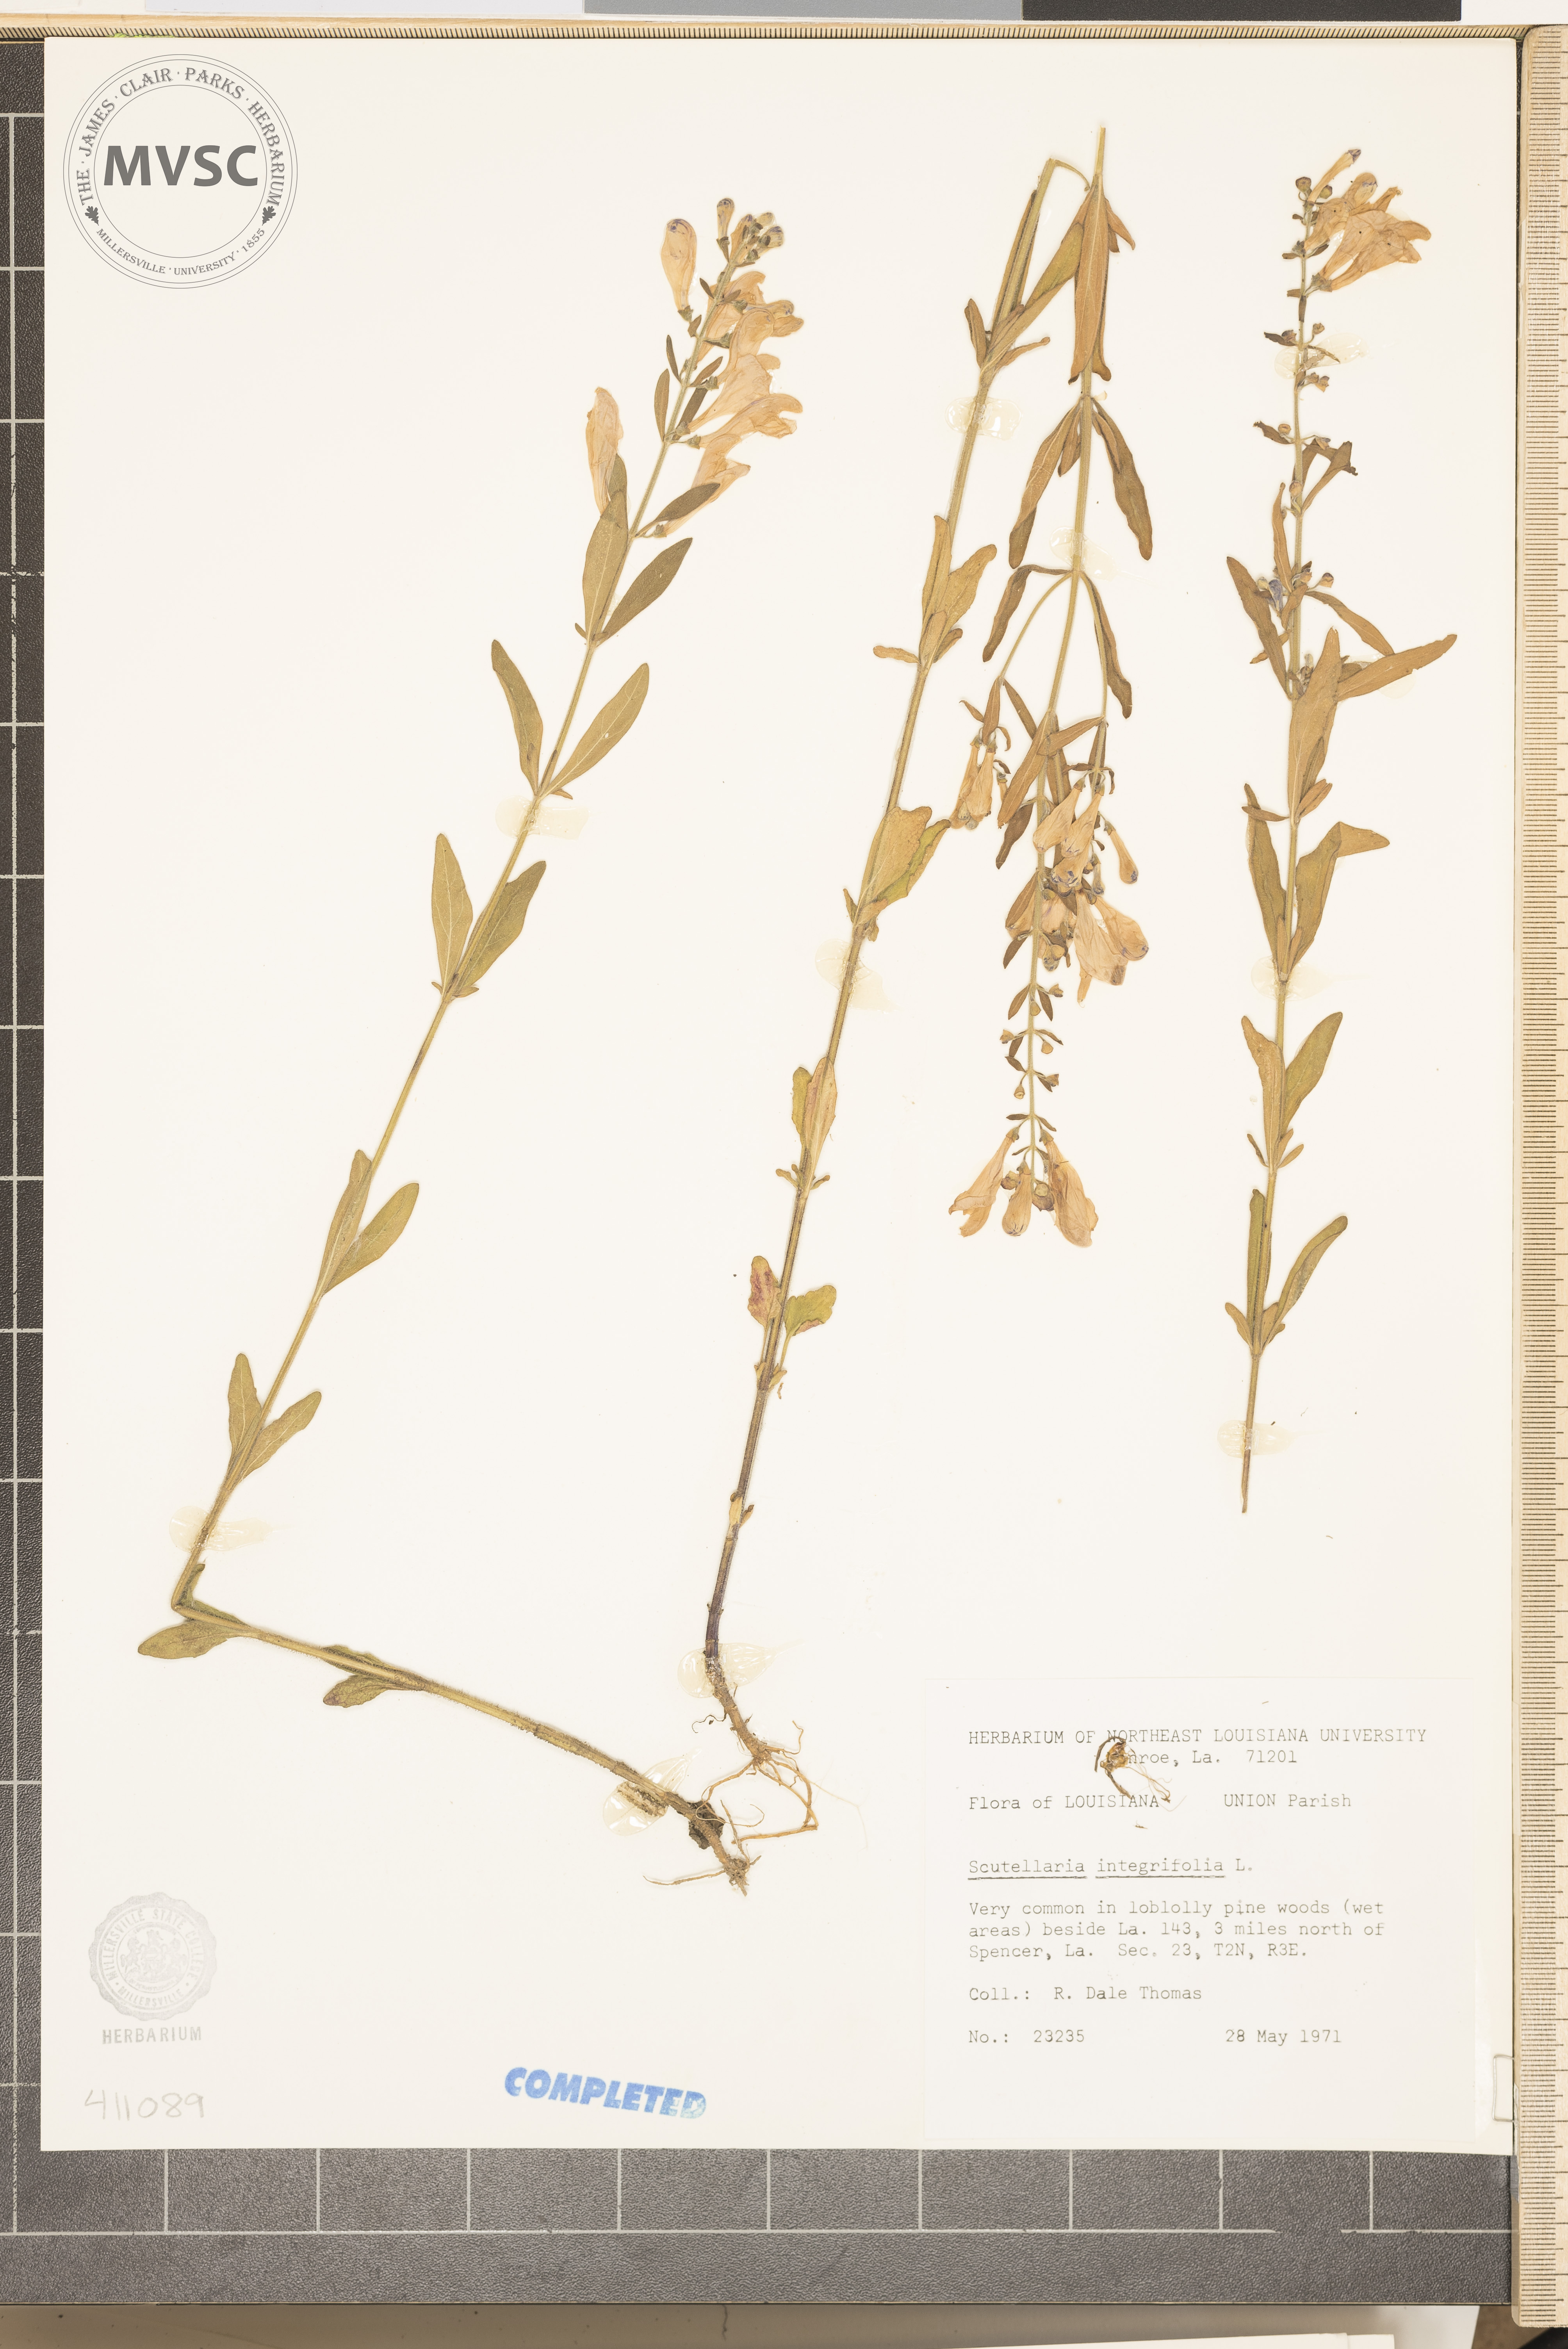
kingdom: Plantae
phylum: Tracheophyta
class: Magnoliopsida
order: Lamiales
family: Lamiaceae
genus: Scutellaria
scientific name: Scutellaria integrifolia
